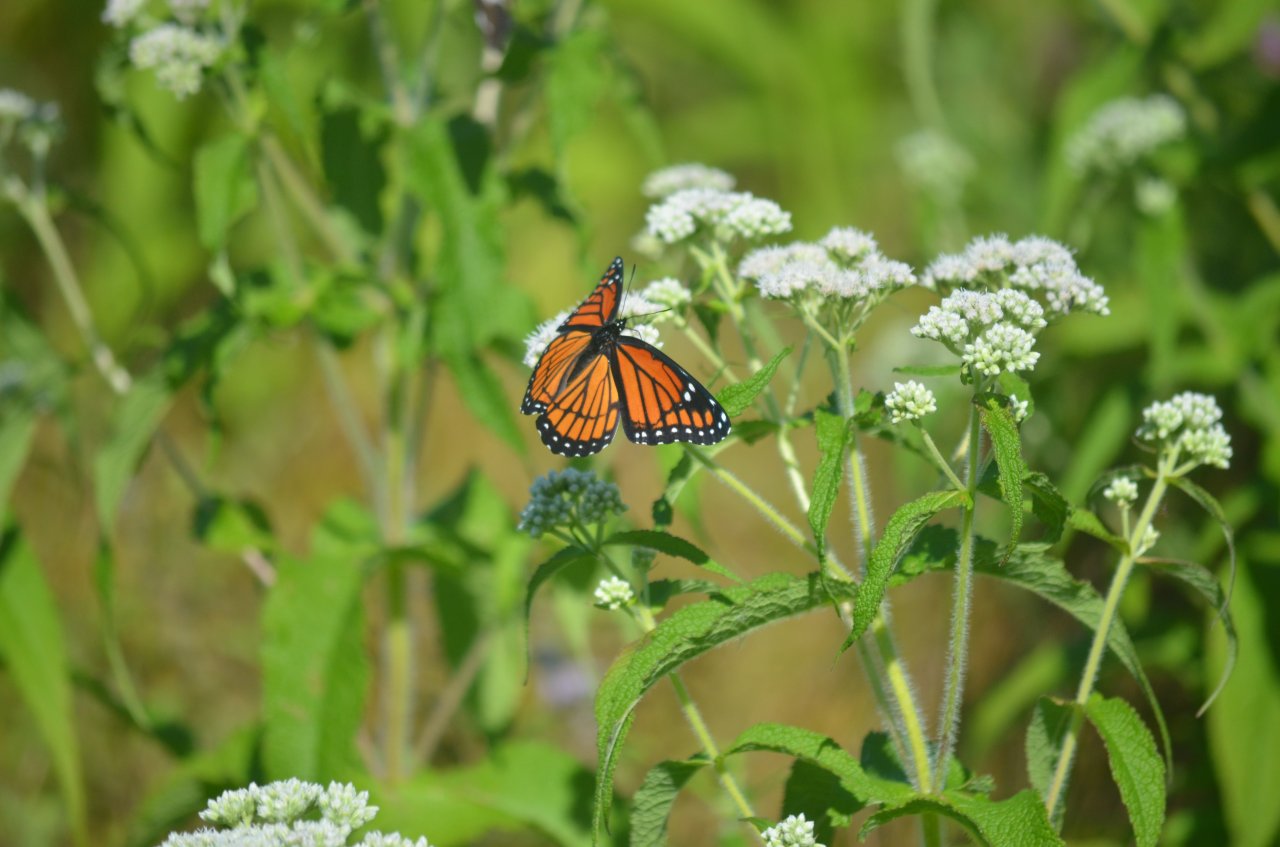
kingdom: Animalia
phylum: Arthropoda
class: Insecta
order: Lepidoptera
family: Nymphalidae
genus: Limenitis
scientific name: Limenitis archippus
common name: Viceroy
